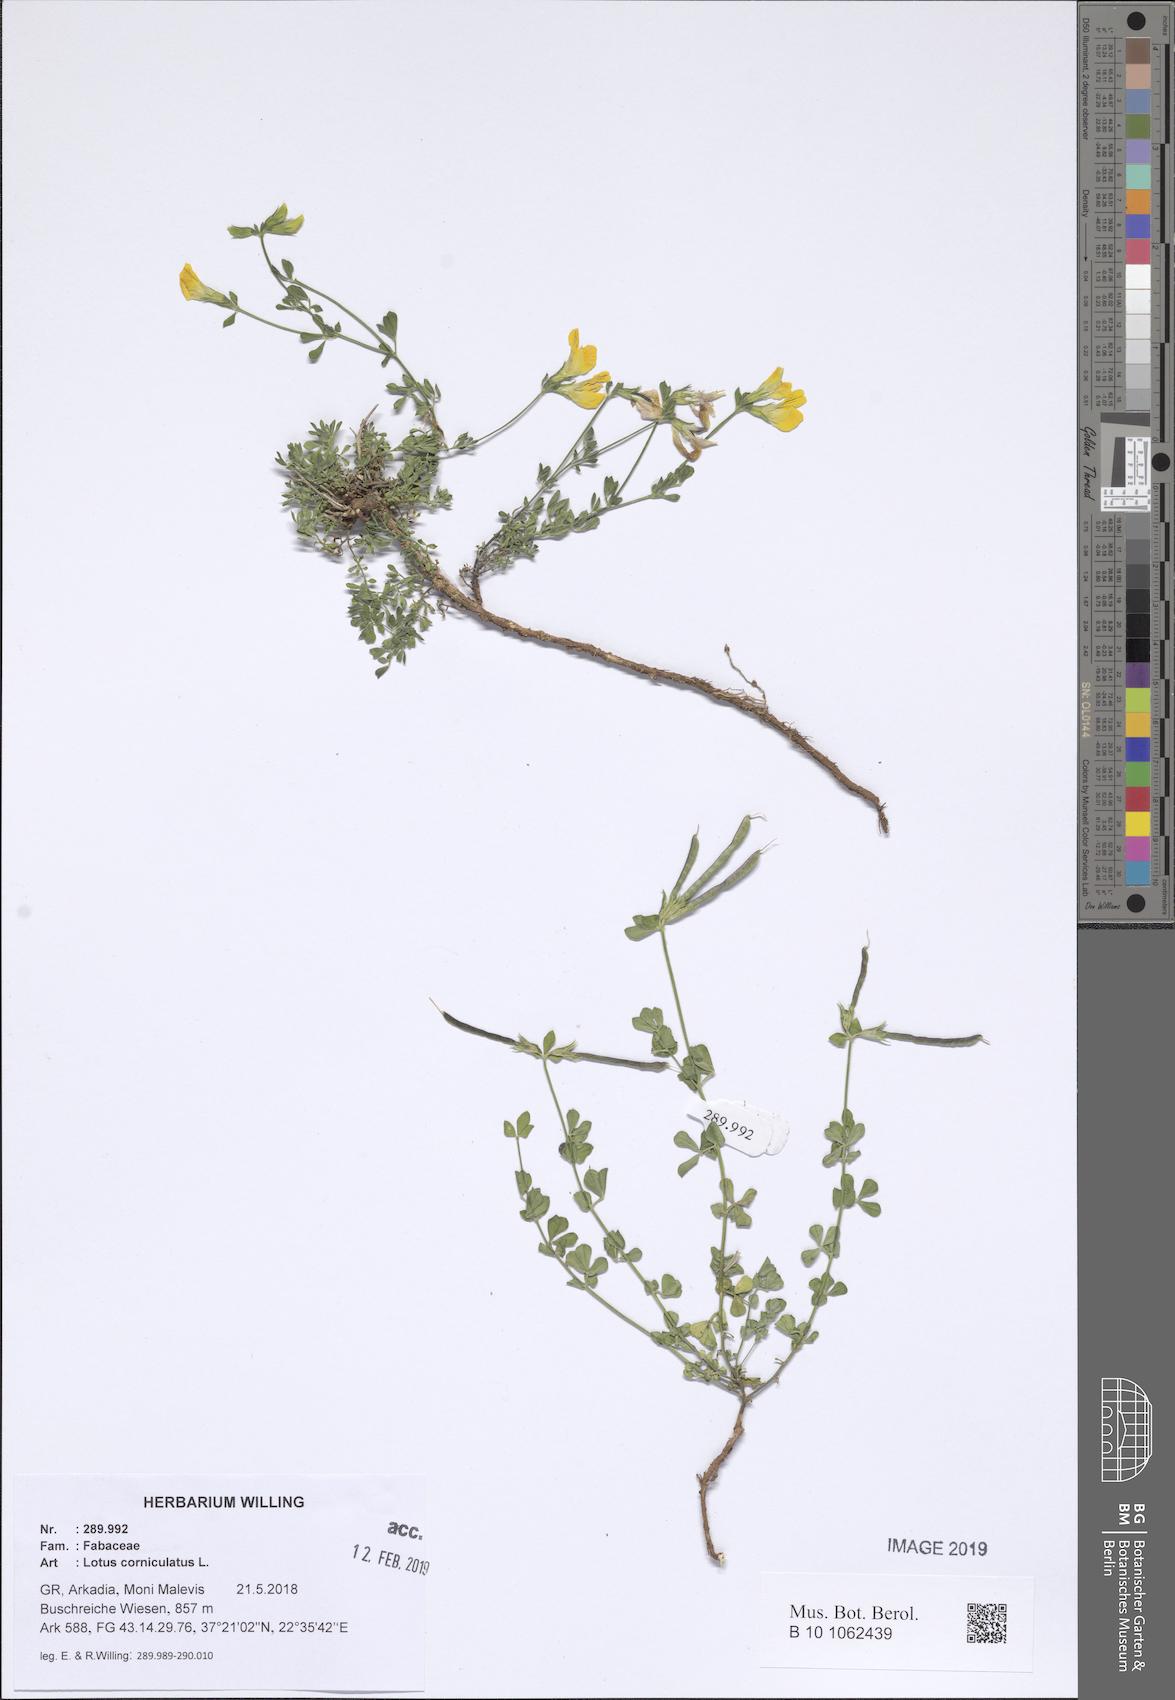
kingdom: Plantae
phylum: Tracheophyta
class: Magnoliopsida
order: Fabales
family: Fabaceae
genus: Lotus
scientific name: Lotus corniculatus
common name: Common bird's-foot-trefoil
